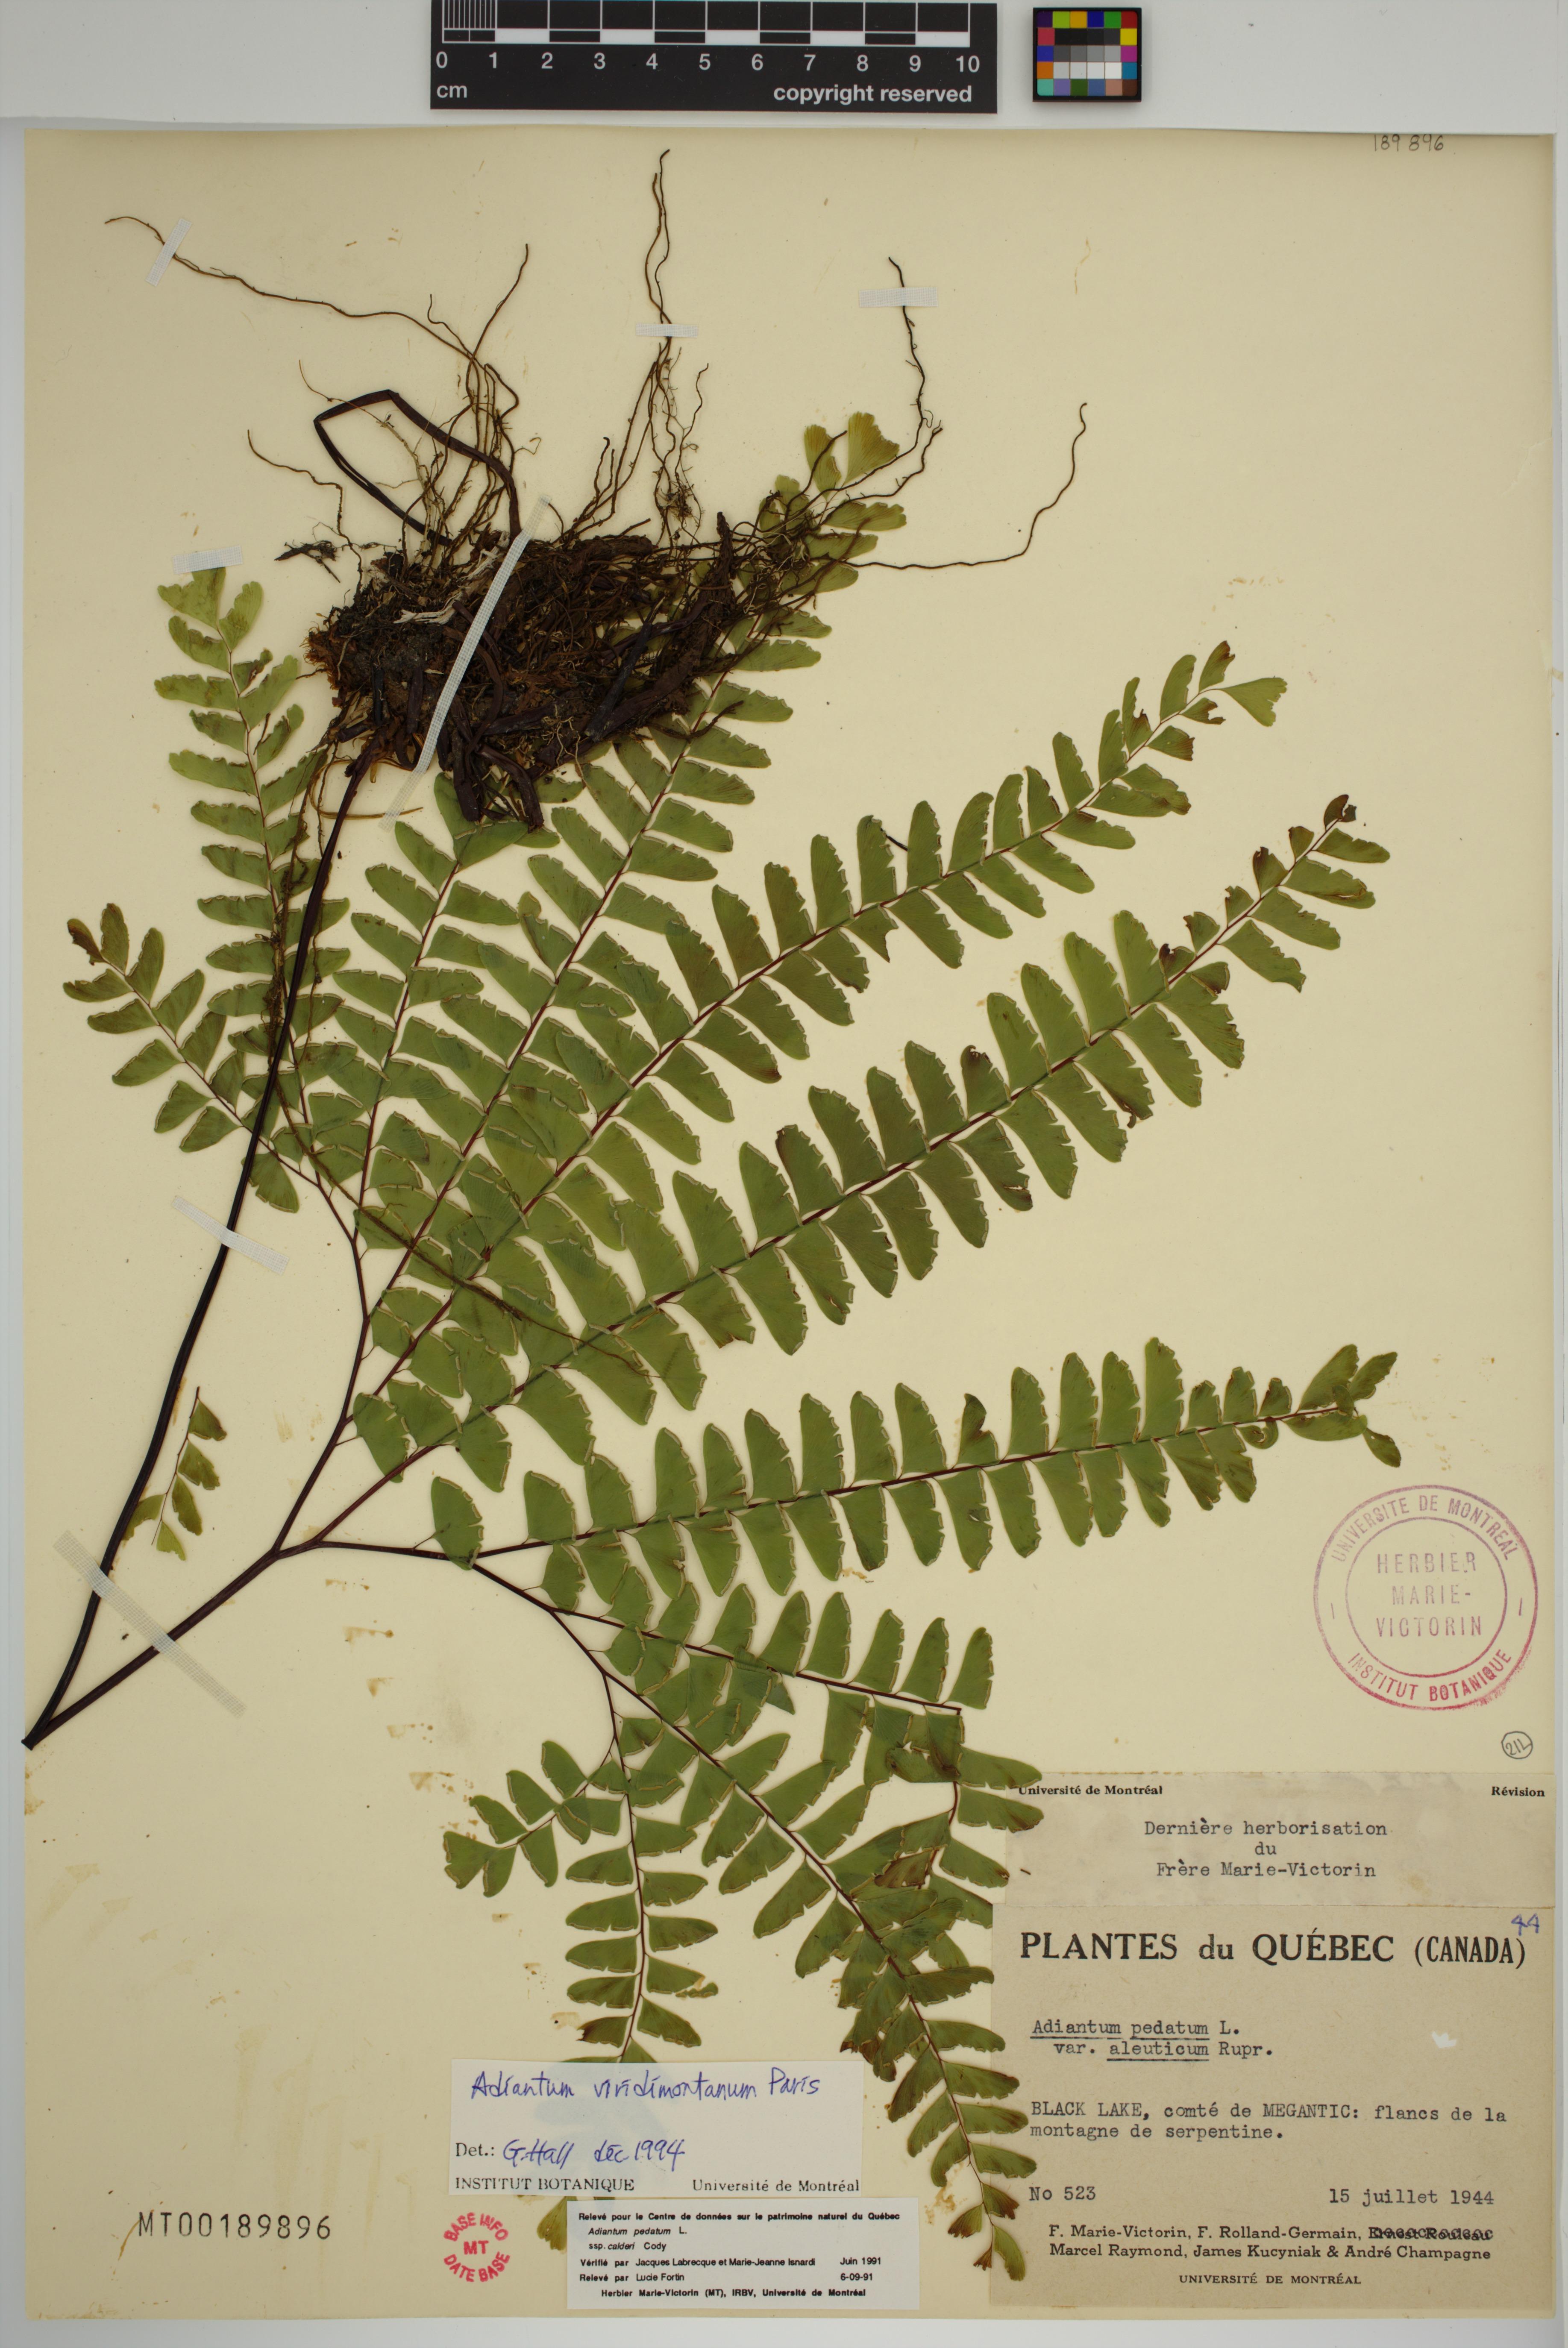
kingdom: Plantae
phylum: Tracheophyta
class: Polypodiopsida
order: Polypodiales
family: Pteridaceae
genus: Adiantum
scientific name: Adiantum viridimontanum
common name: Green mountain maidenhair
